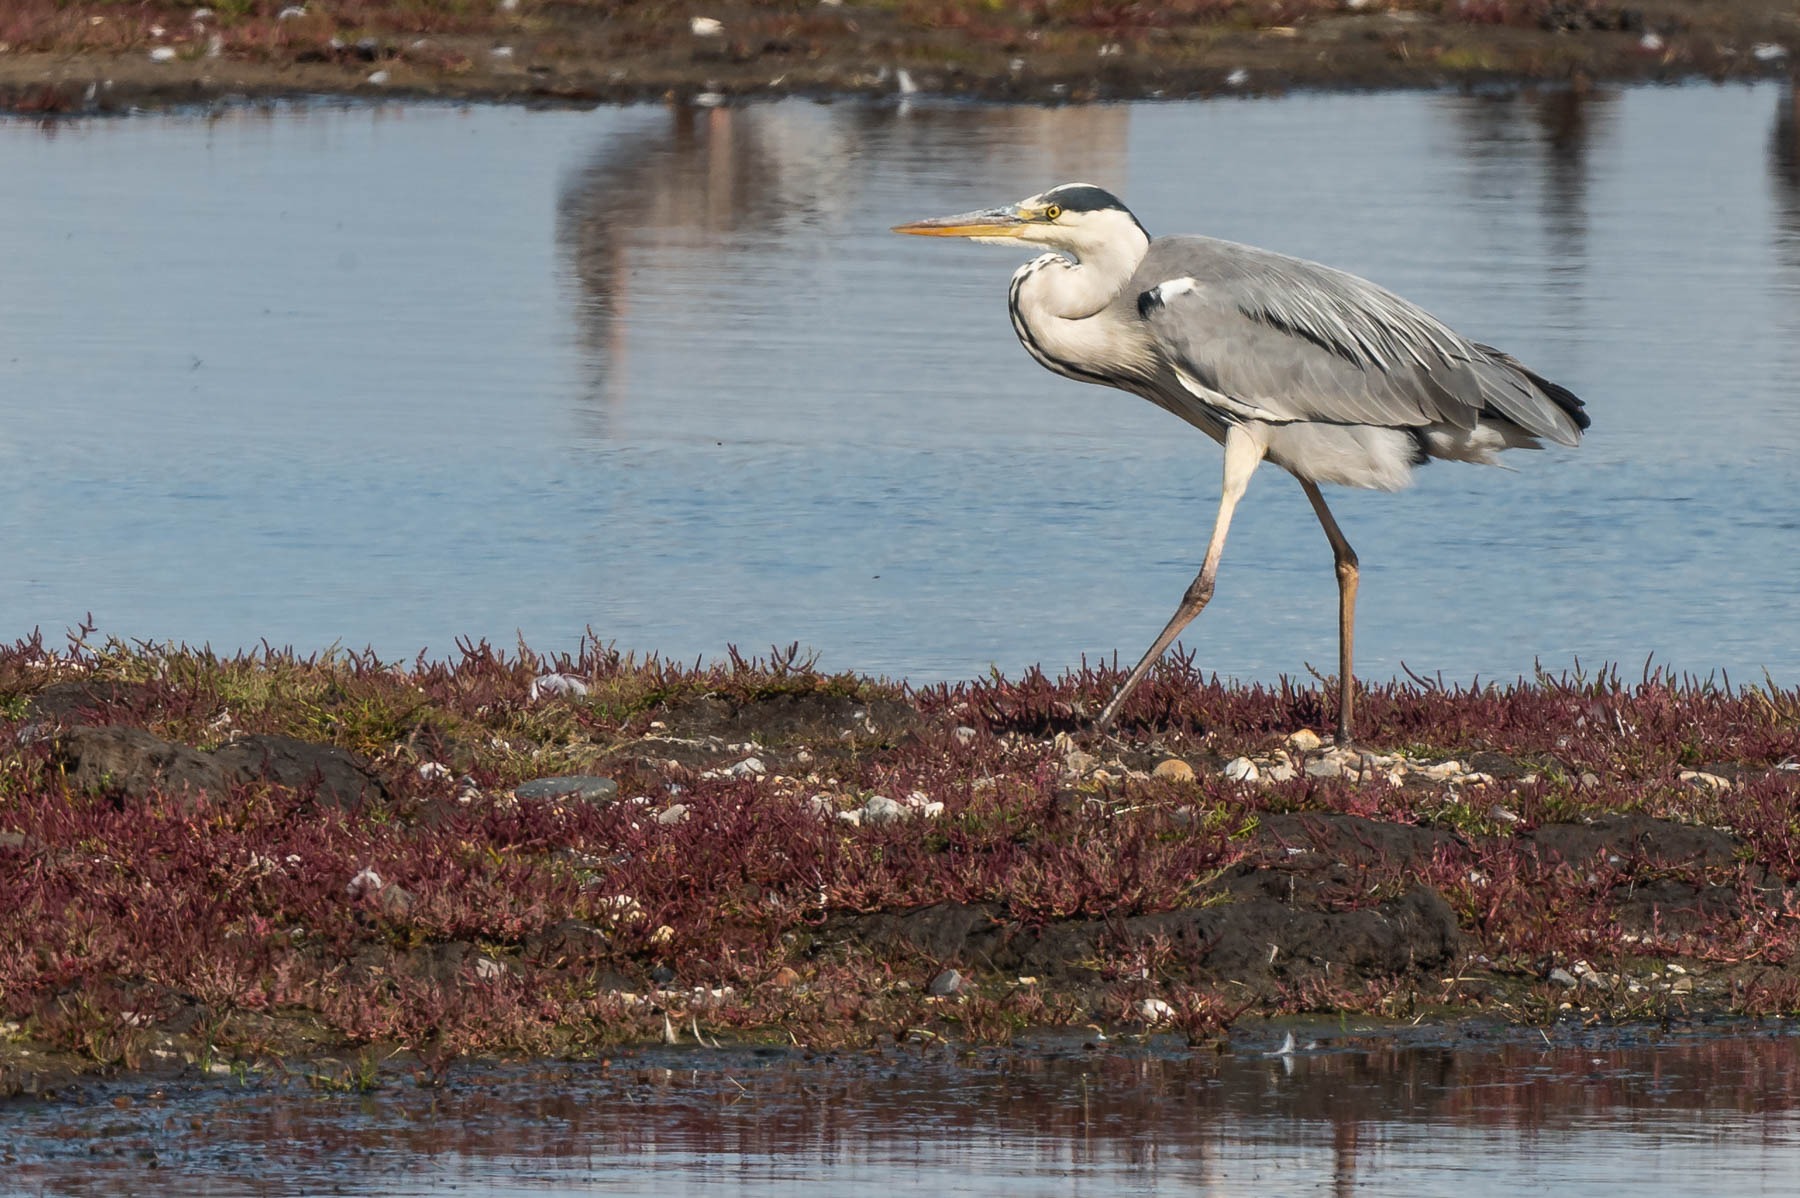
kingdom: Animalia
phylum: Chordata
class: Aves
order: Pelecaniformes
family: Ardeidae
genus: Ardea
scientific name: Ardea cinerea
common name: Fiskehejre
